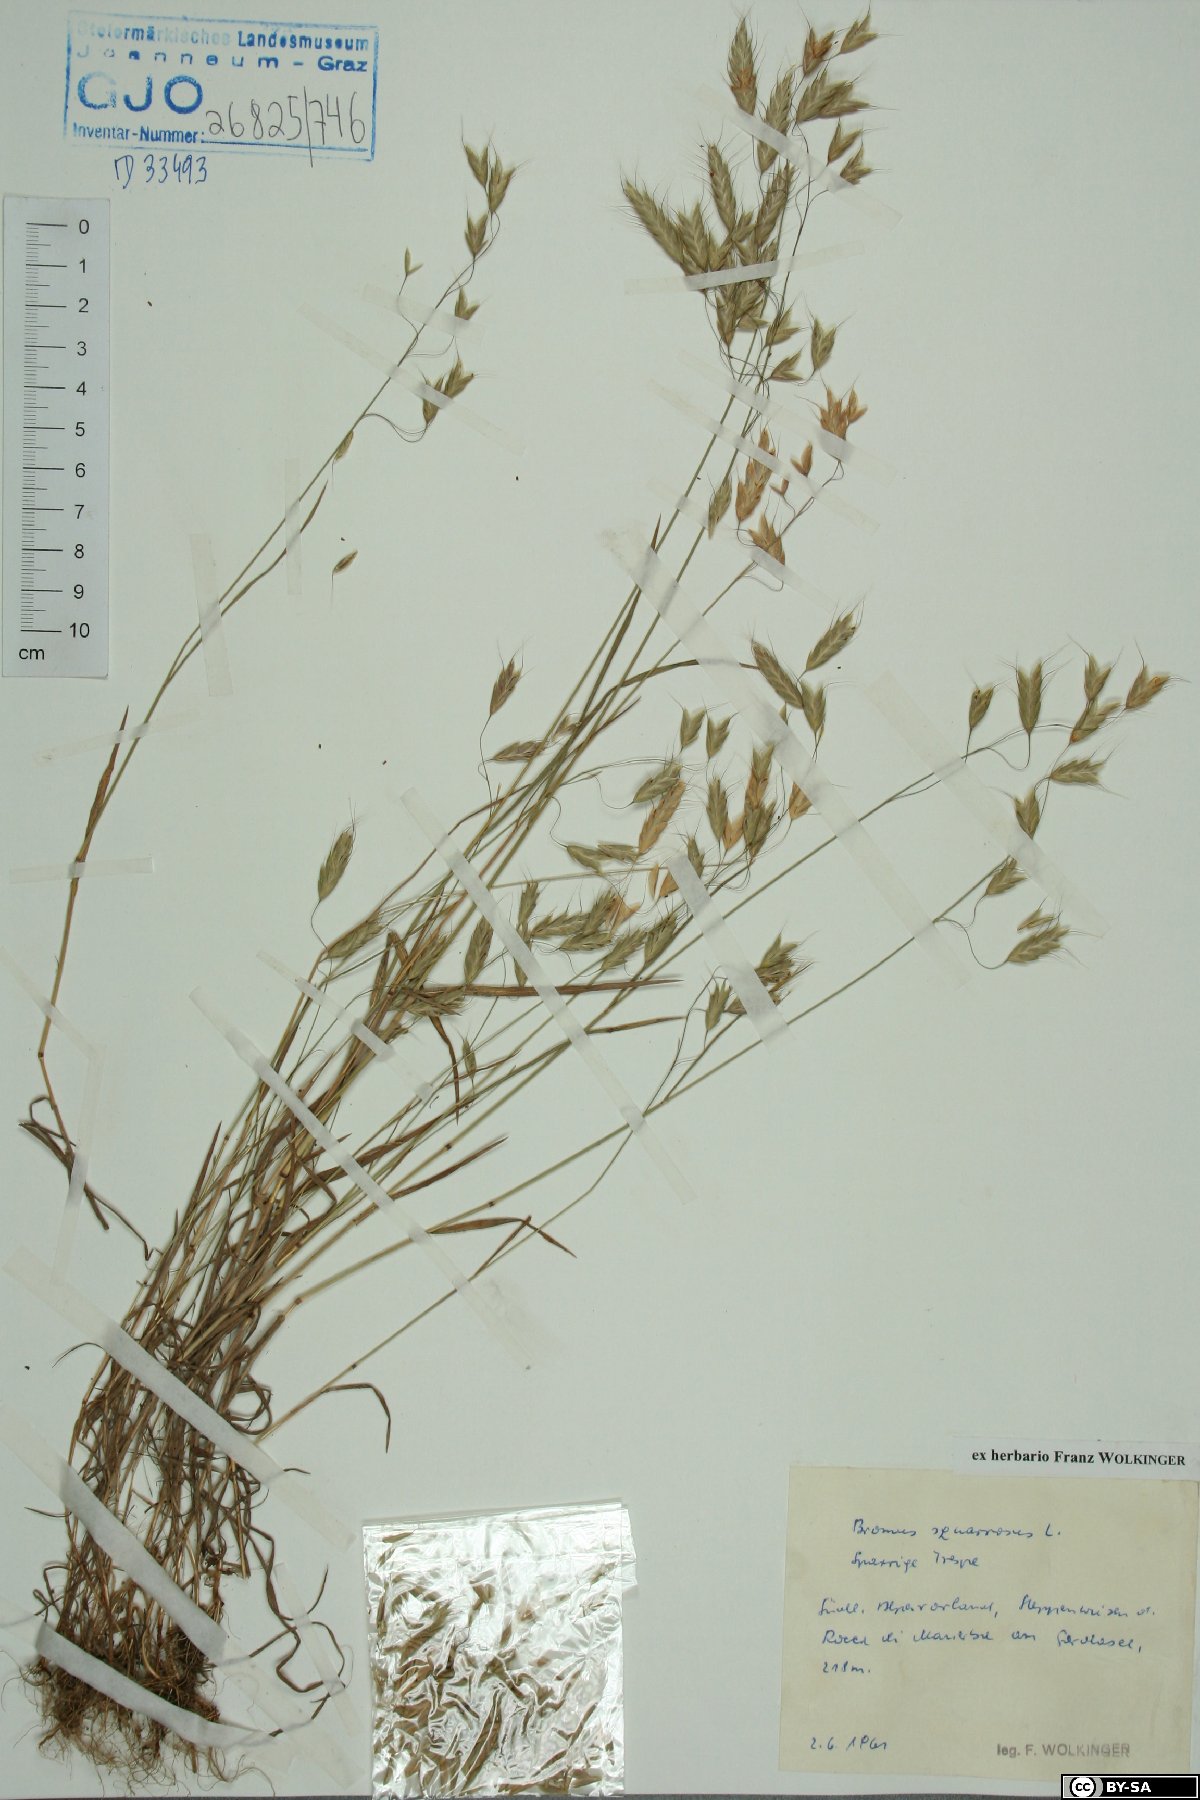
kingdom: Plantae
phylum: Tracheophyta
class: Liliopsida
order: Poales
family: Poaceae
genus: Bromus
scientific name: Bromus squarrosus
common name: Corn brome
